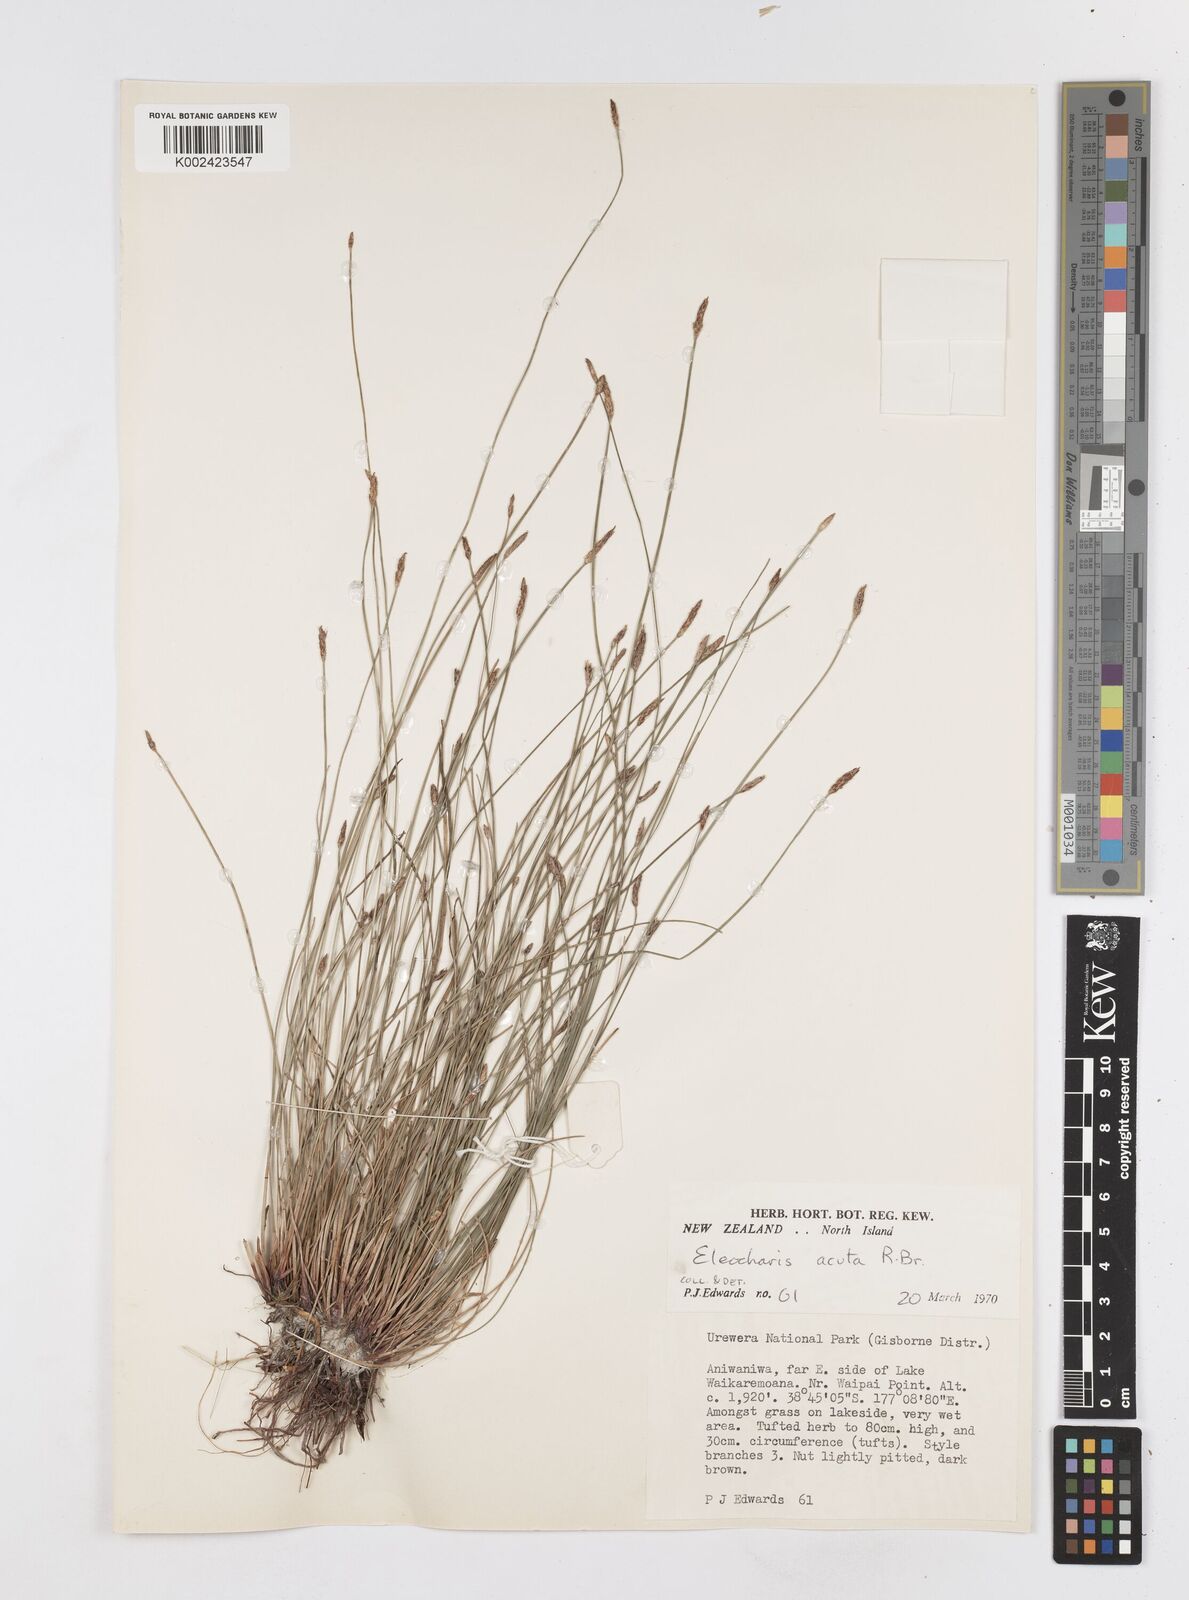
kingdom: Plantae
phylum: Tracheophyta
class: Liliopsida
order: Poales
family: Cyperaceae
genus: Eleocharis
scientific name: Eleocharis acuta
